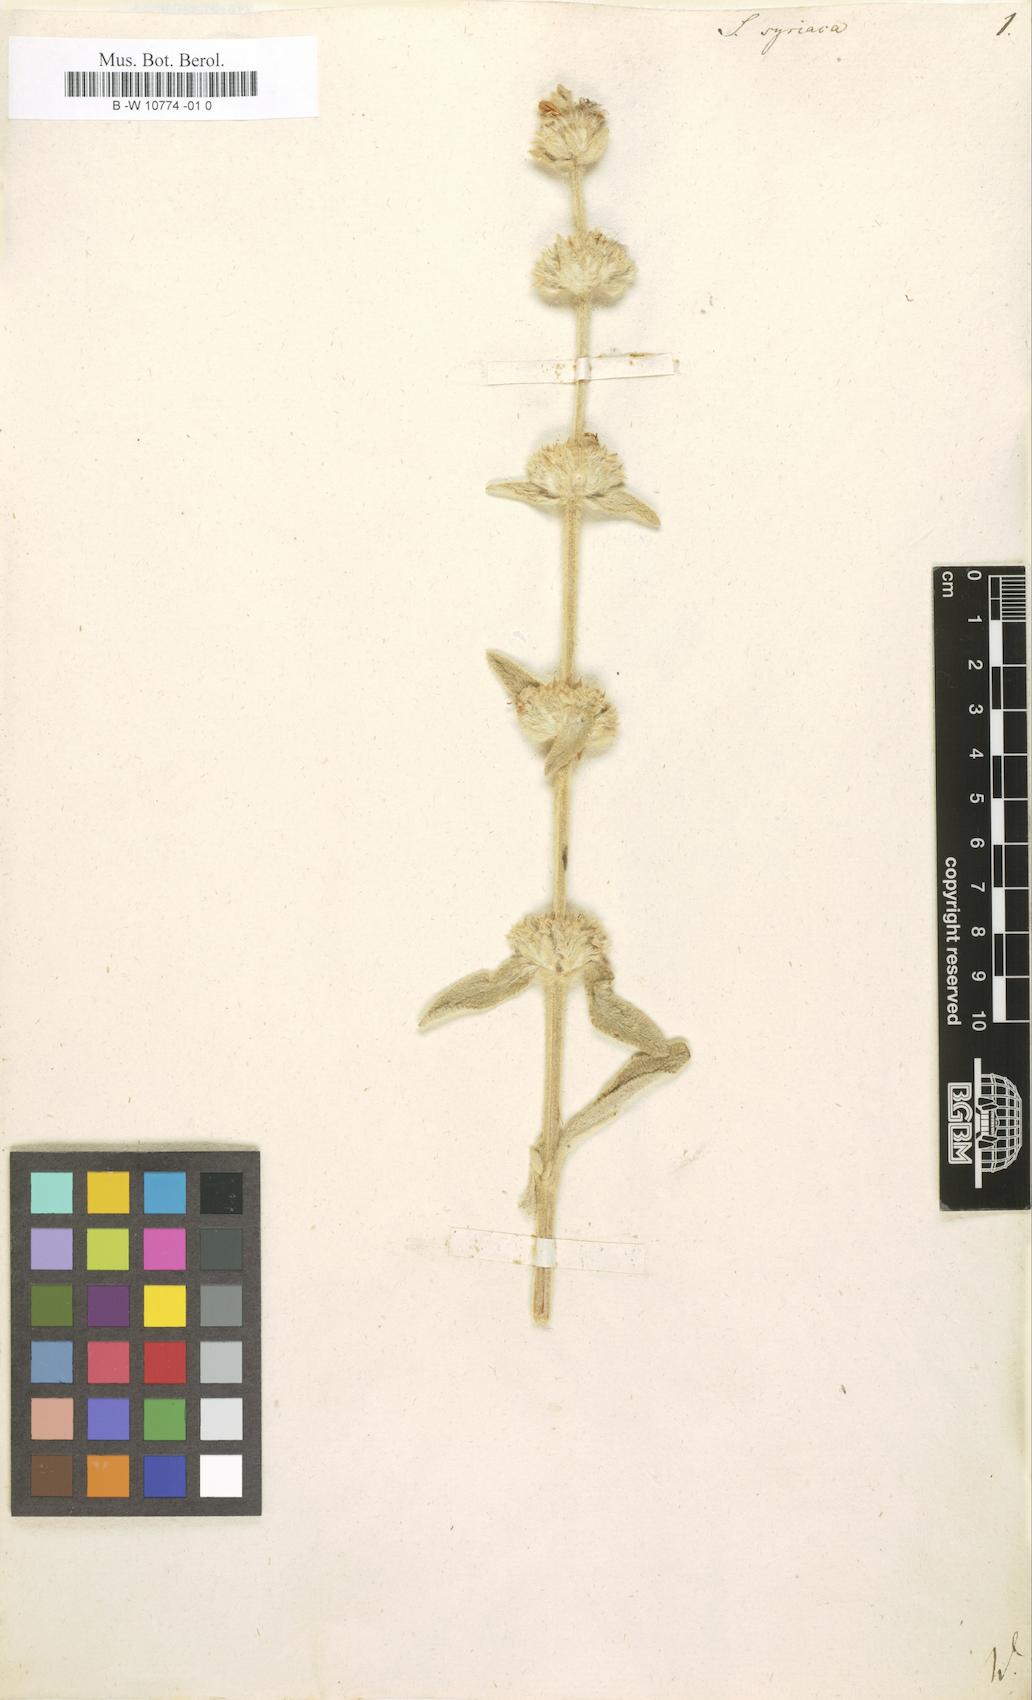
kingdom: Plantae
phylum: Tracheophyta
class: Magnoliopsida
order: Lamiales
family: Lamiaceae
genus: Sideritis
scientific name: Sideritis syriaca
